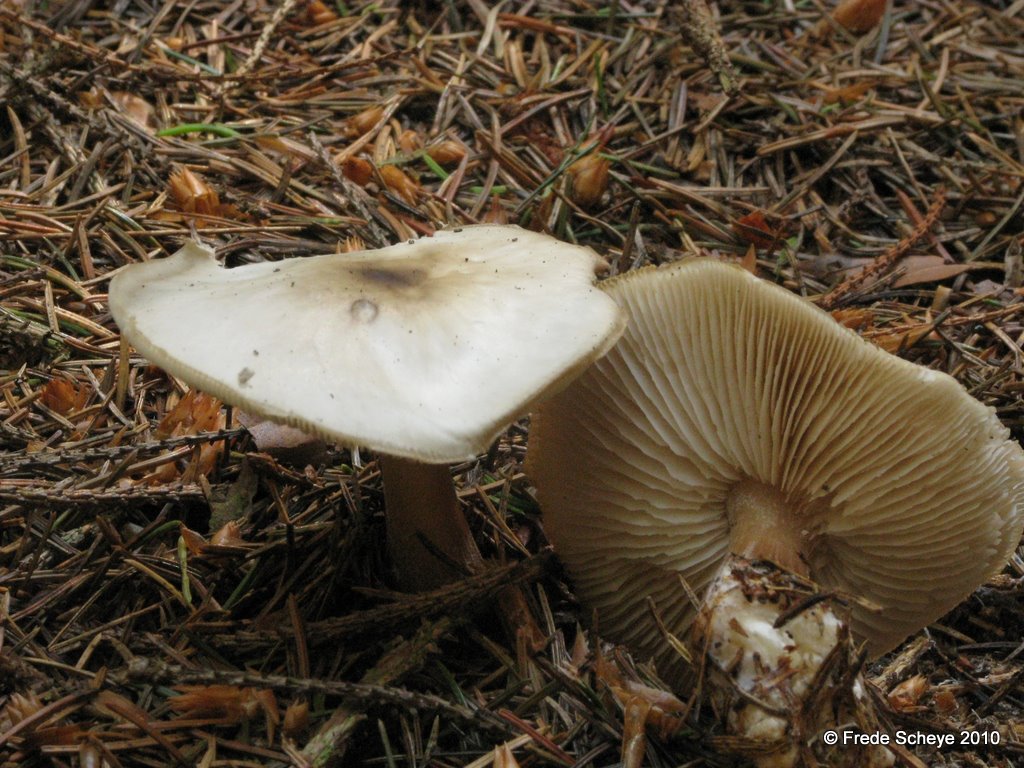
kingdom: Fungi
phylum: Basidiomycota
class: Agaricomycetes
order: Agaricales
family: Omphalotaceae
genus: Collybiopsis
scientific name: Collybiopsis confluens
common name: knippe-fladhat
